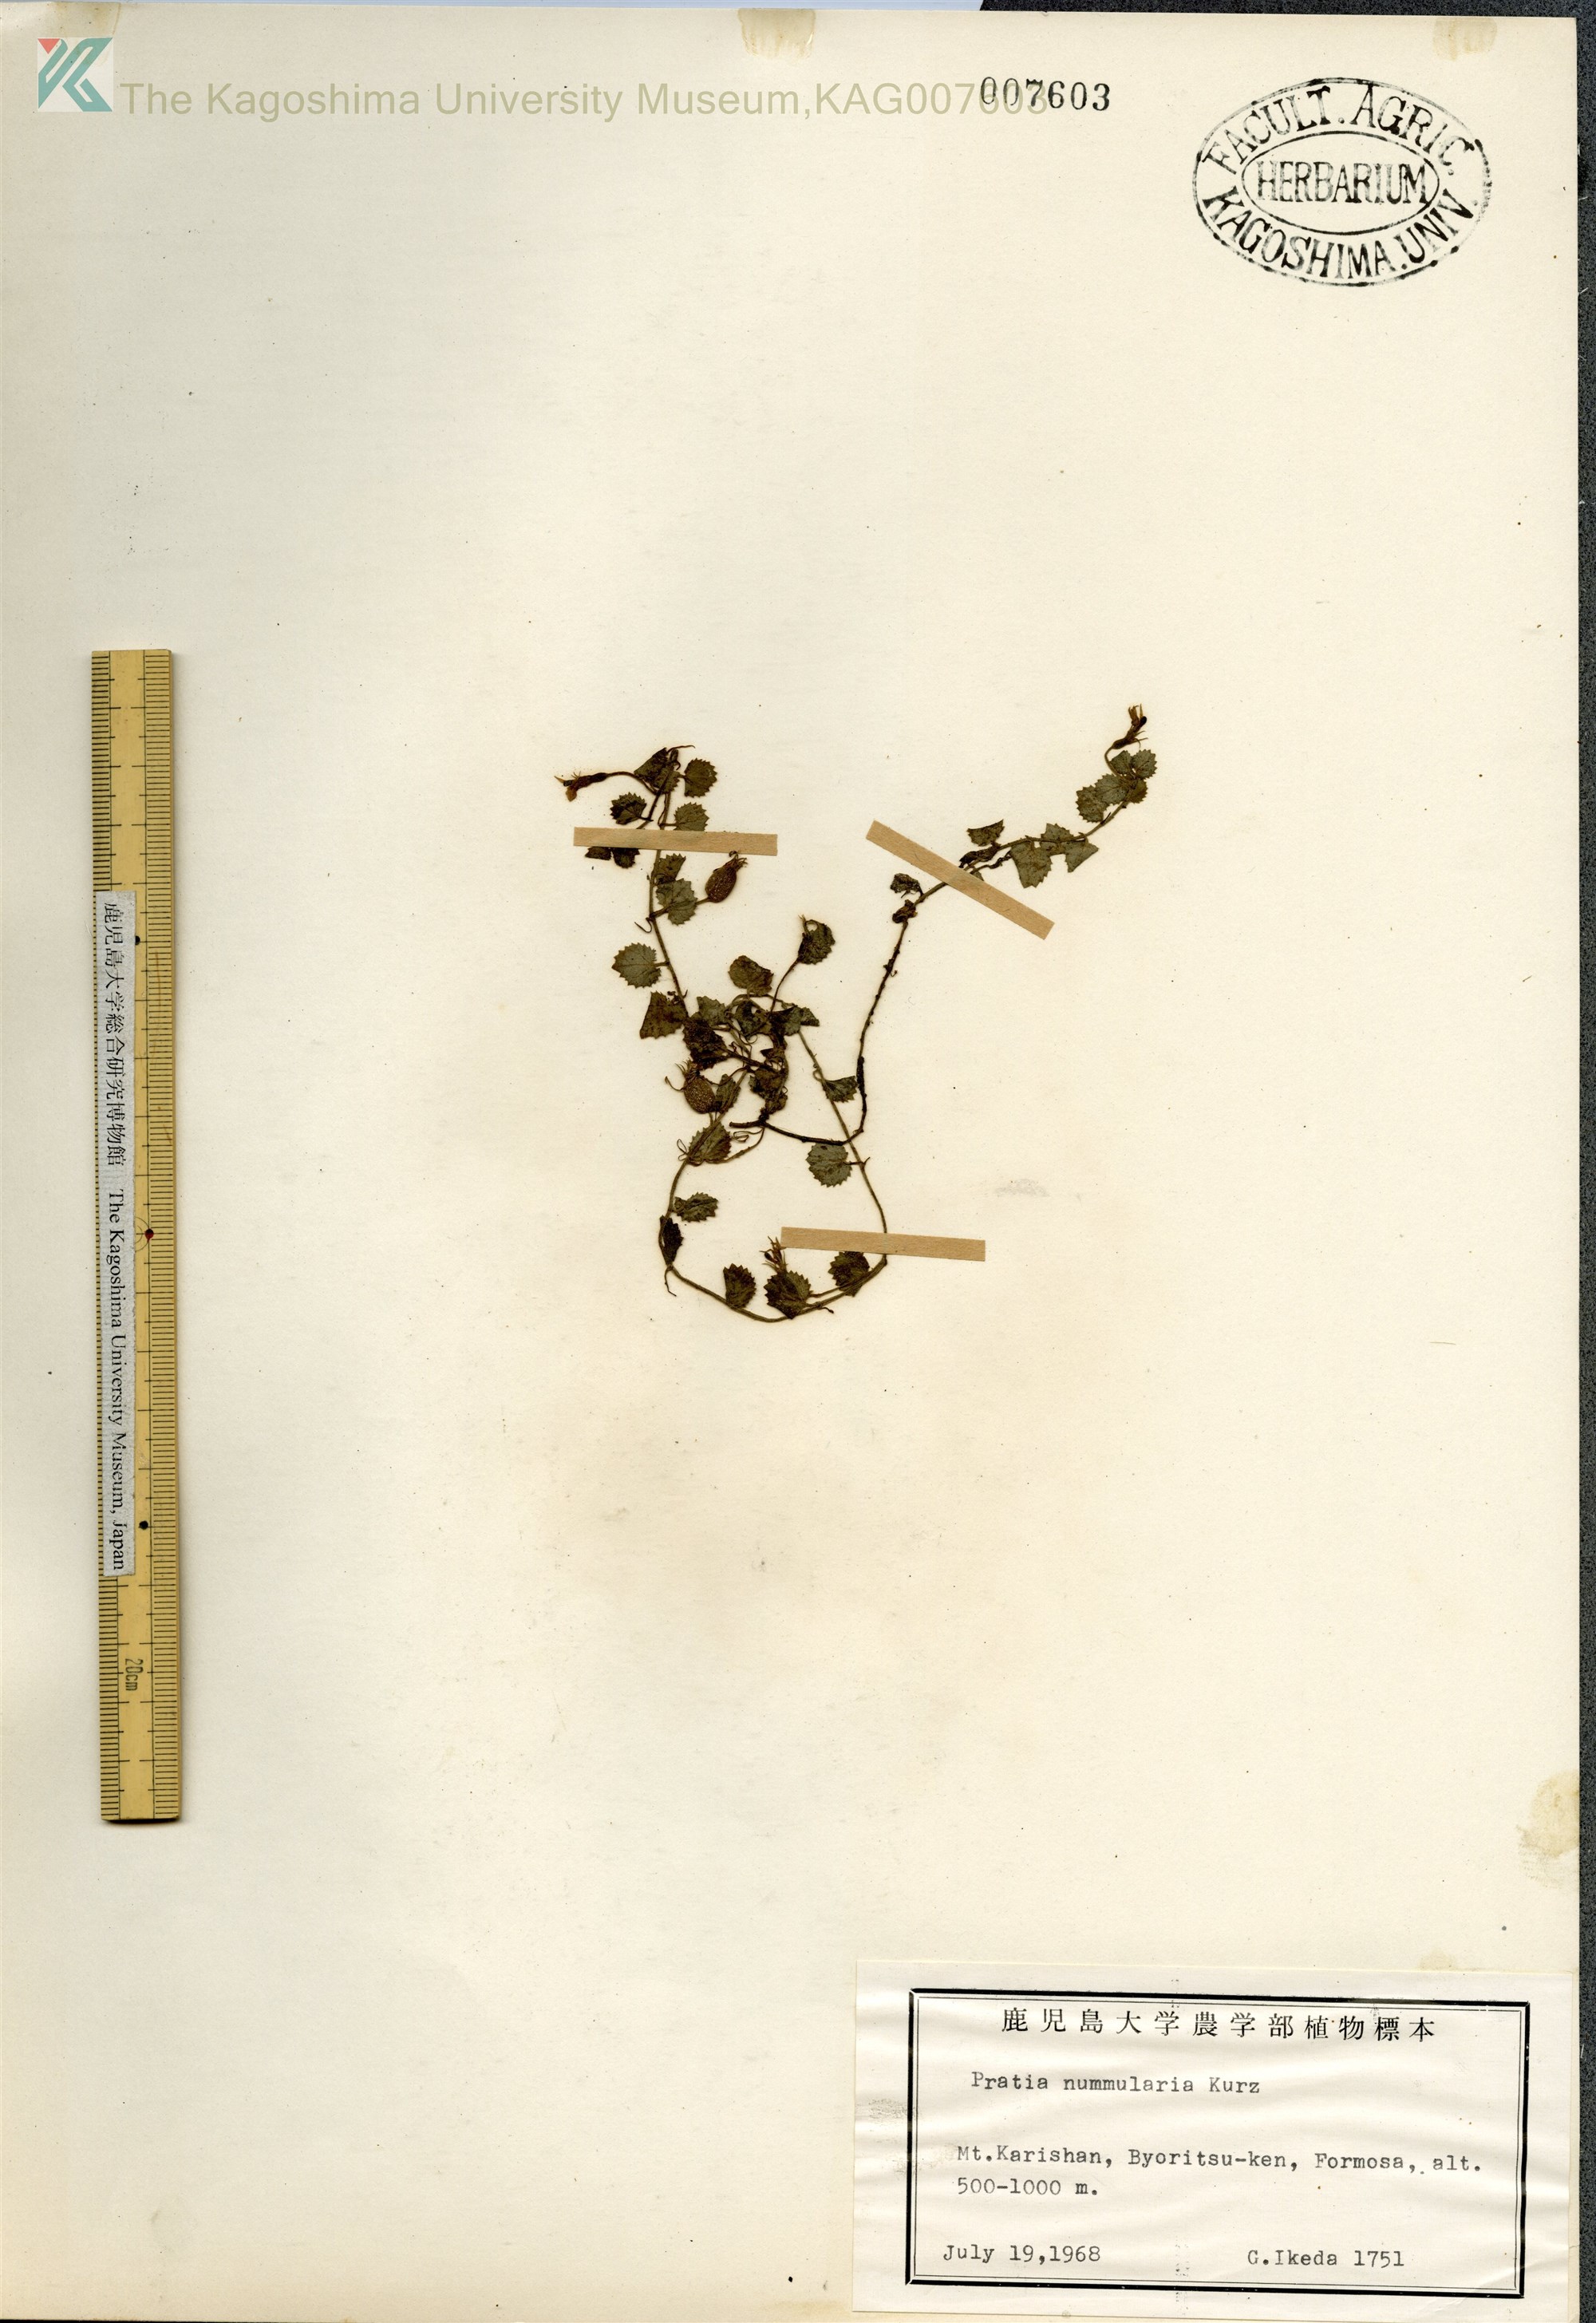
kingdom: Plantae
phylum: Tracheophyta
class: Magnoliopsida
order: Asterales
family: Campanulaceae
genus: Pratia
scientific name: Pratia nummularia
